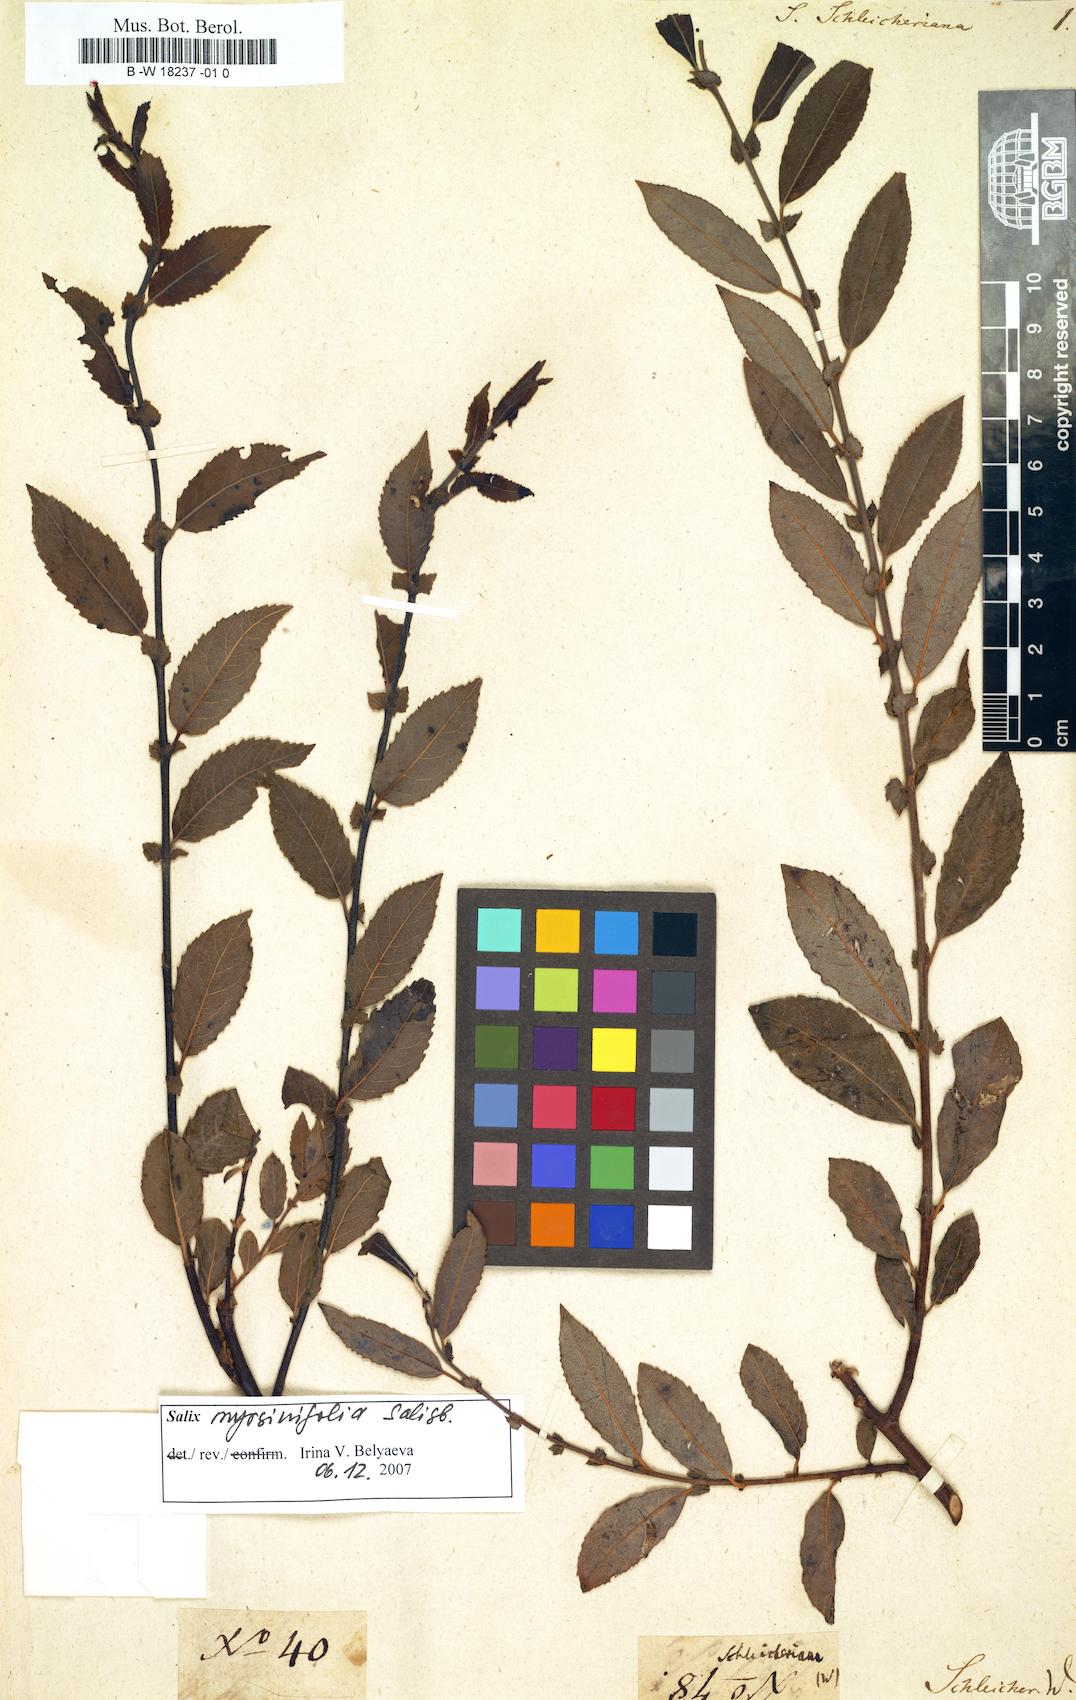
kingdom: Plantae
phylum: Tracheophyta
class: Magnoliopsida
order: Malpighiales
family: Salicaceae
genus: Salix
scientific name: Salix myrsinifolia
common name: Dark-leaved willow
